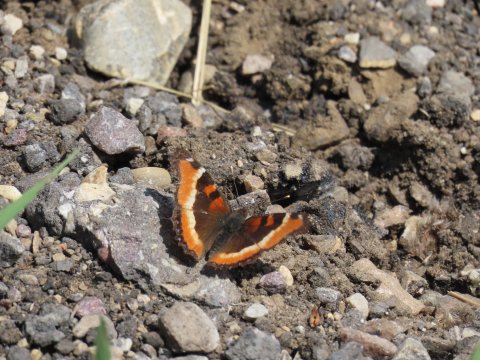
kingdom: Animalia
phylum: Arthropoda
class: Insecta
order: Lepidoptera
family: Nymphalidae
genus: Aglais
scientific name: Aglais milberti
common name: Milbert's Tortoiseshell
